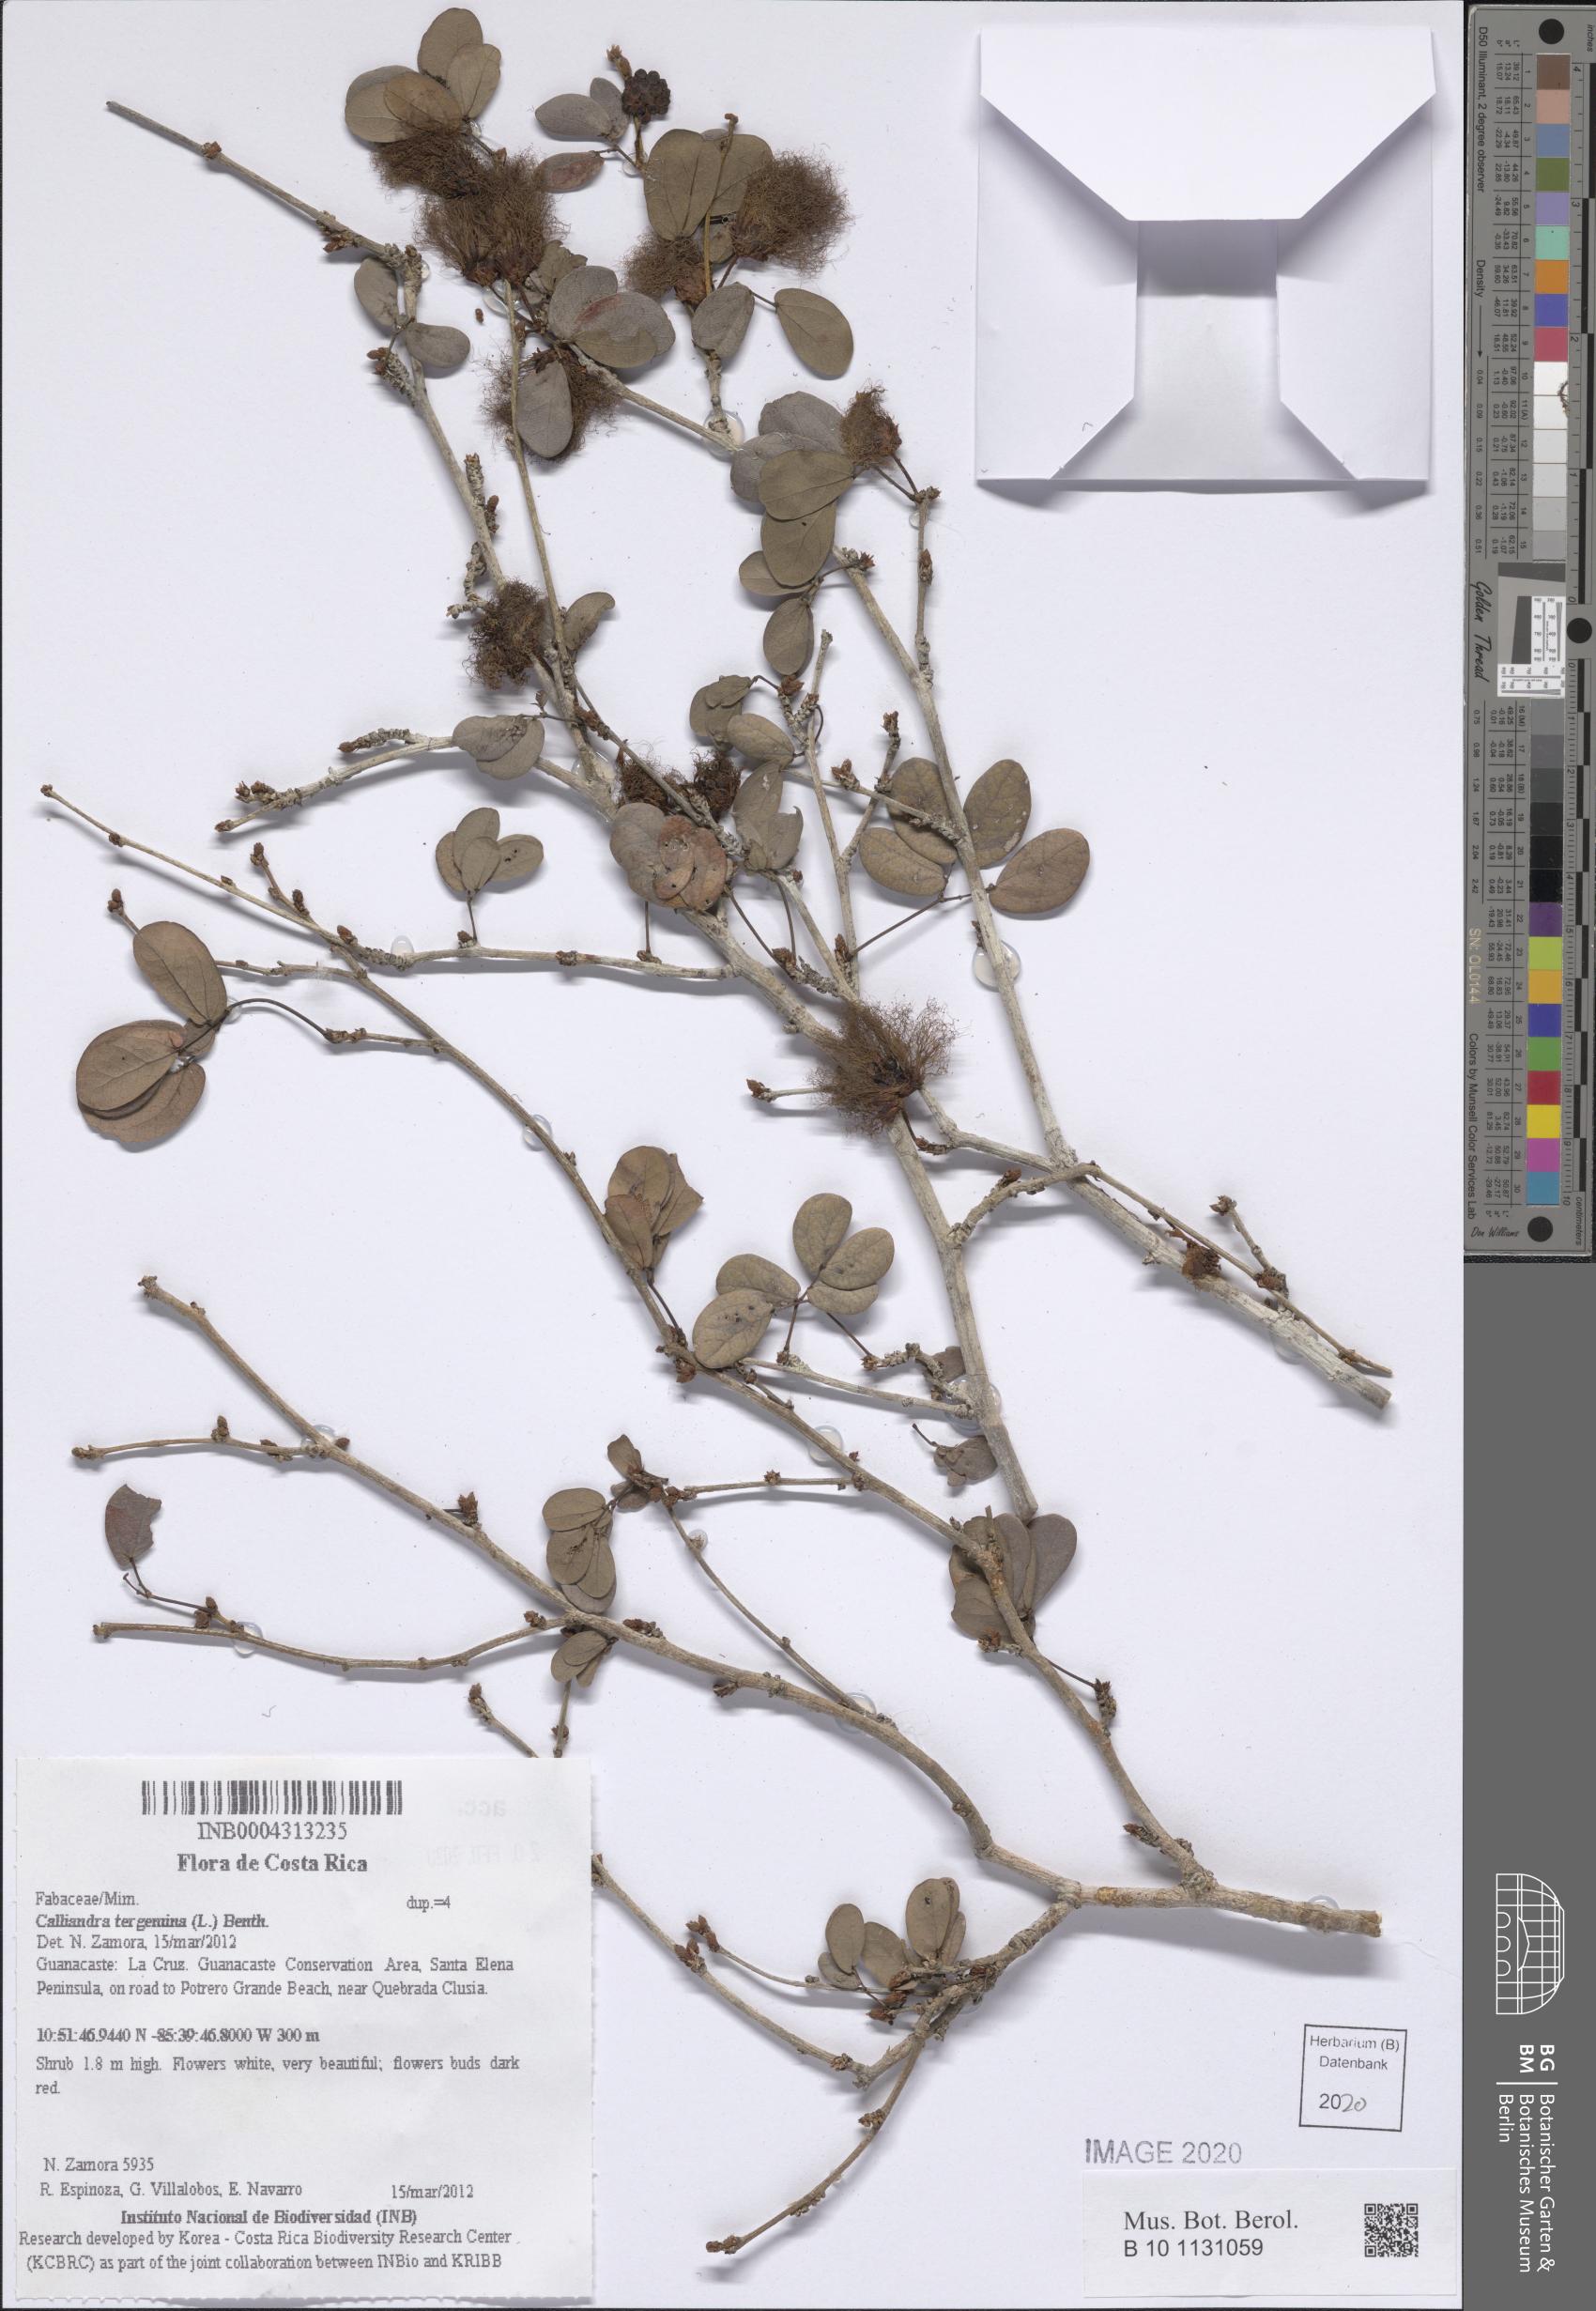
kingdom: Plantae
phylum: Tracheophyta
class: Magnoliopsida
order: Fabales
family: Fabaceae
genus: Calliandra
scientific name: Calliandra tergemina
